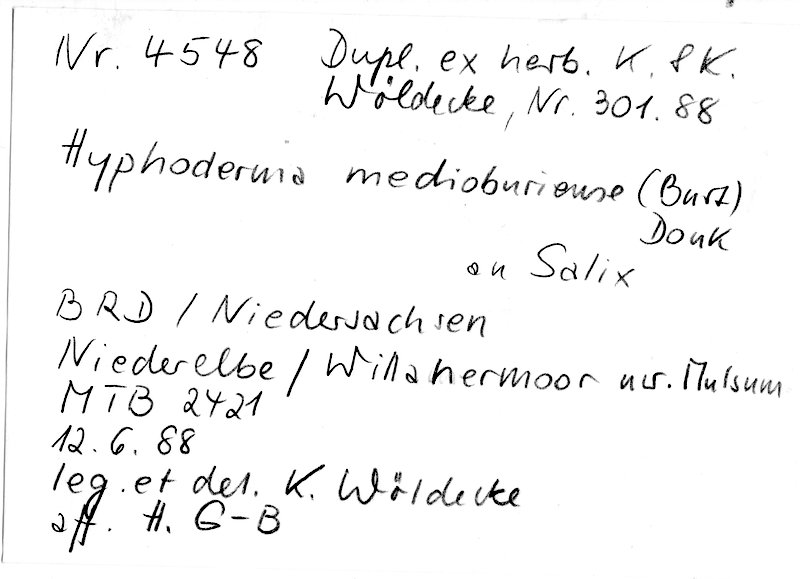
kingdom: Plantae
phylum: Tracheophyta
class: Magnoliopsida
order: Malpighiales
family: Salicaceae
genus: Salix
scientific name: Salix
